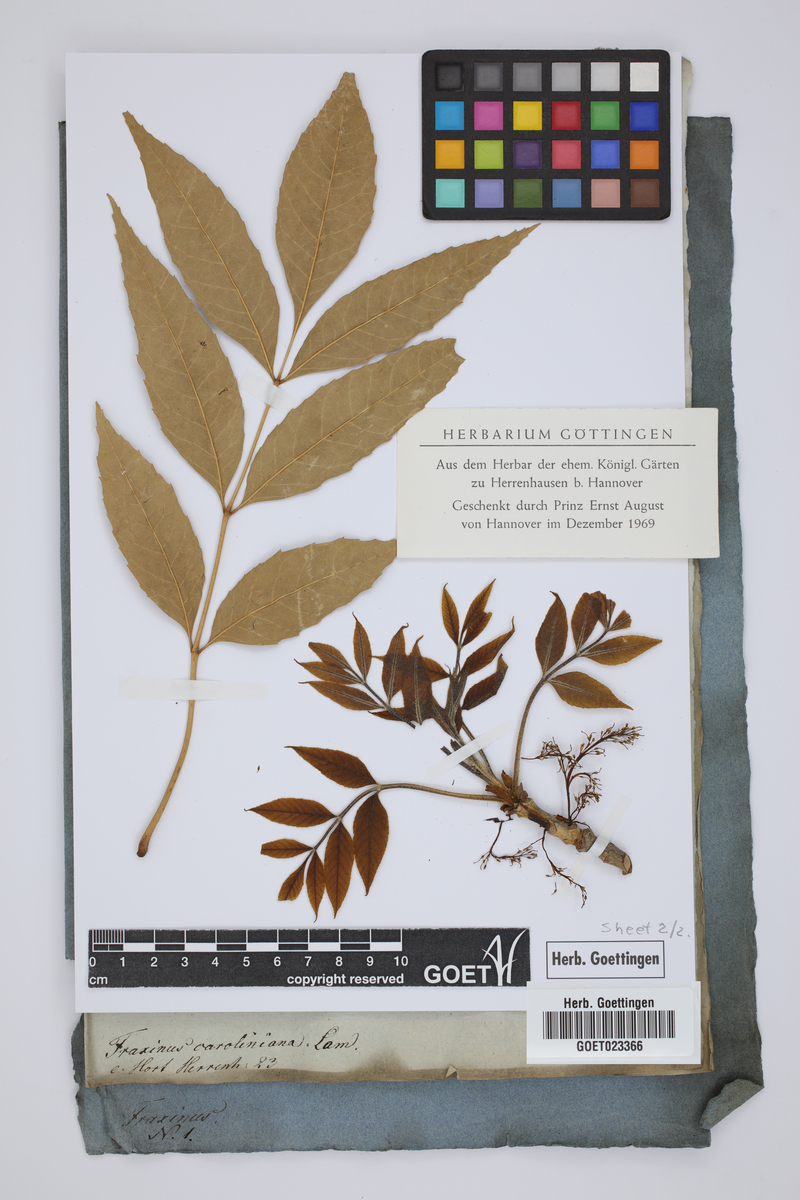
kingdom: Plantae
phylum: Tracheophyta
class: Magnoliopsida
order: Lamiales
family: Oleaceae
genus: Fraxinus
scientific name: Fraxinus americana
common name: White ash
